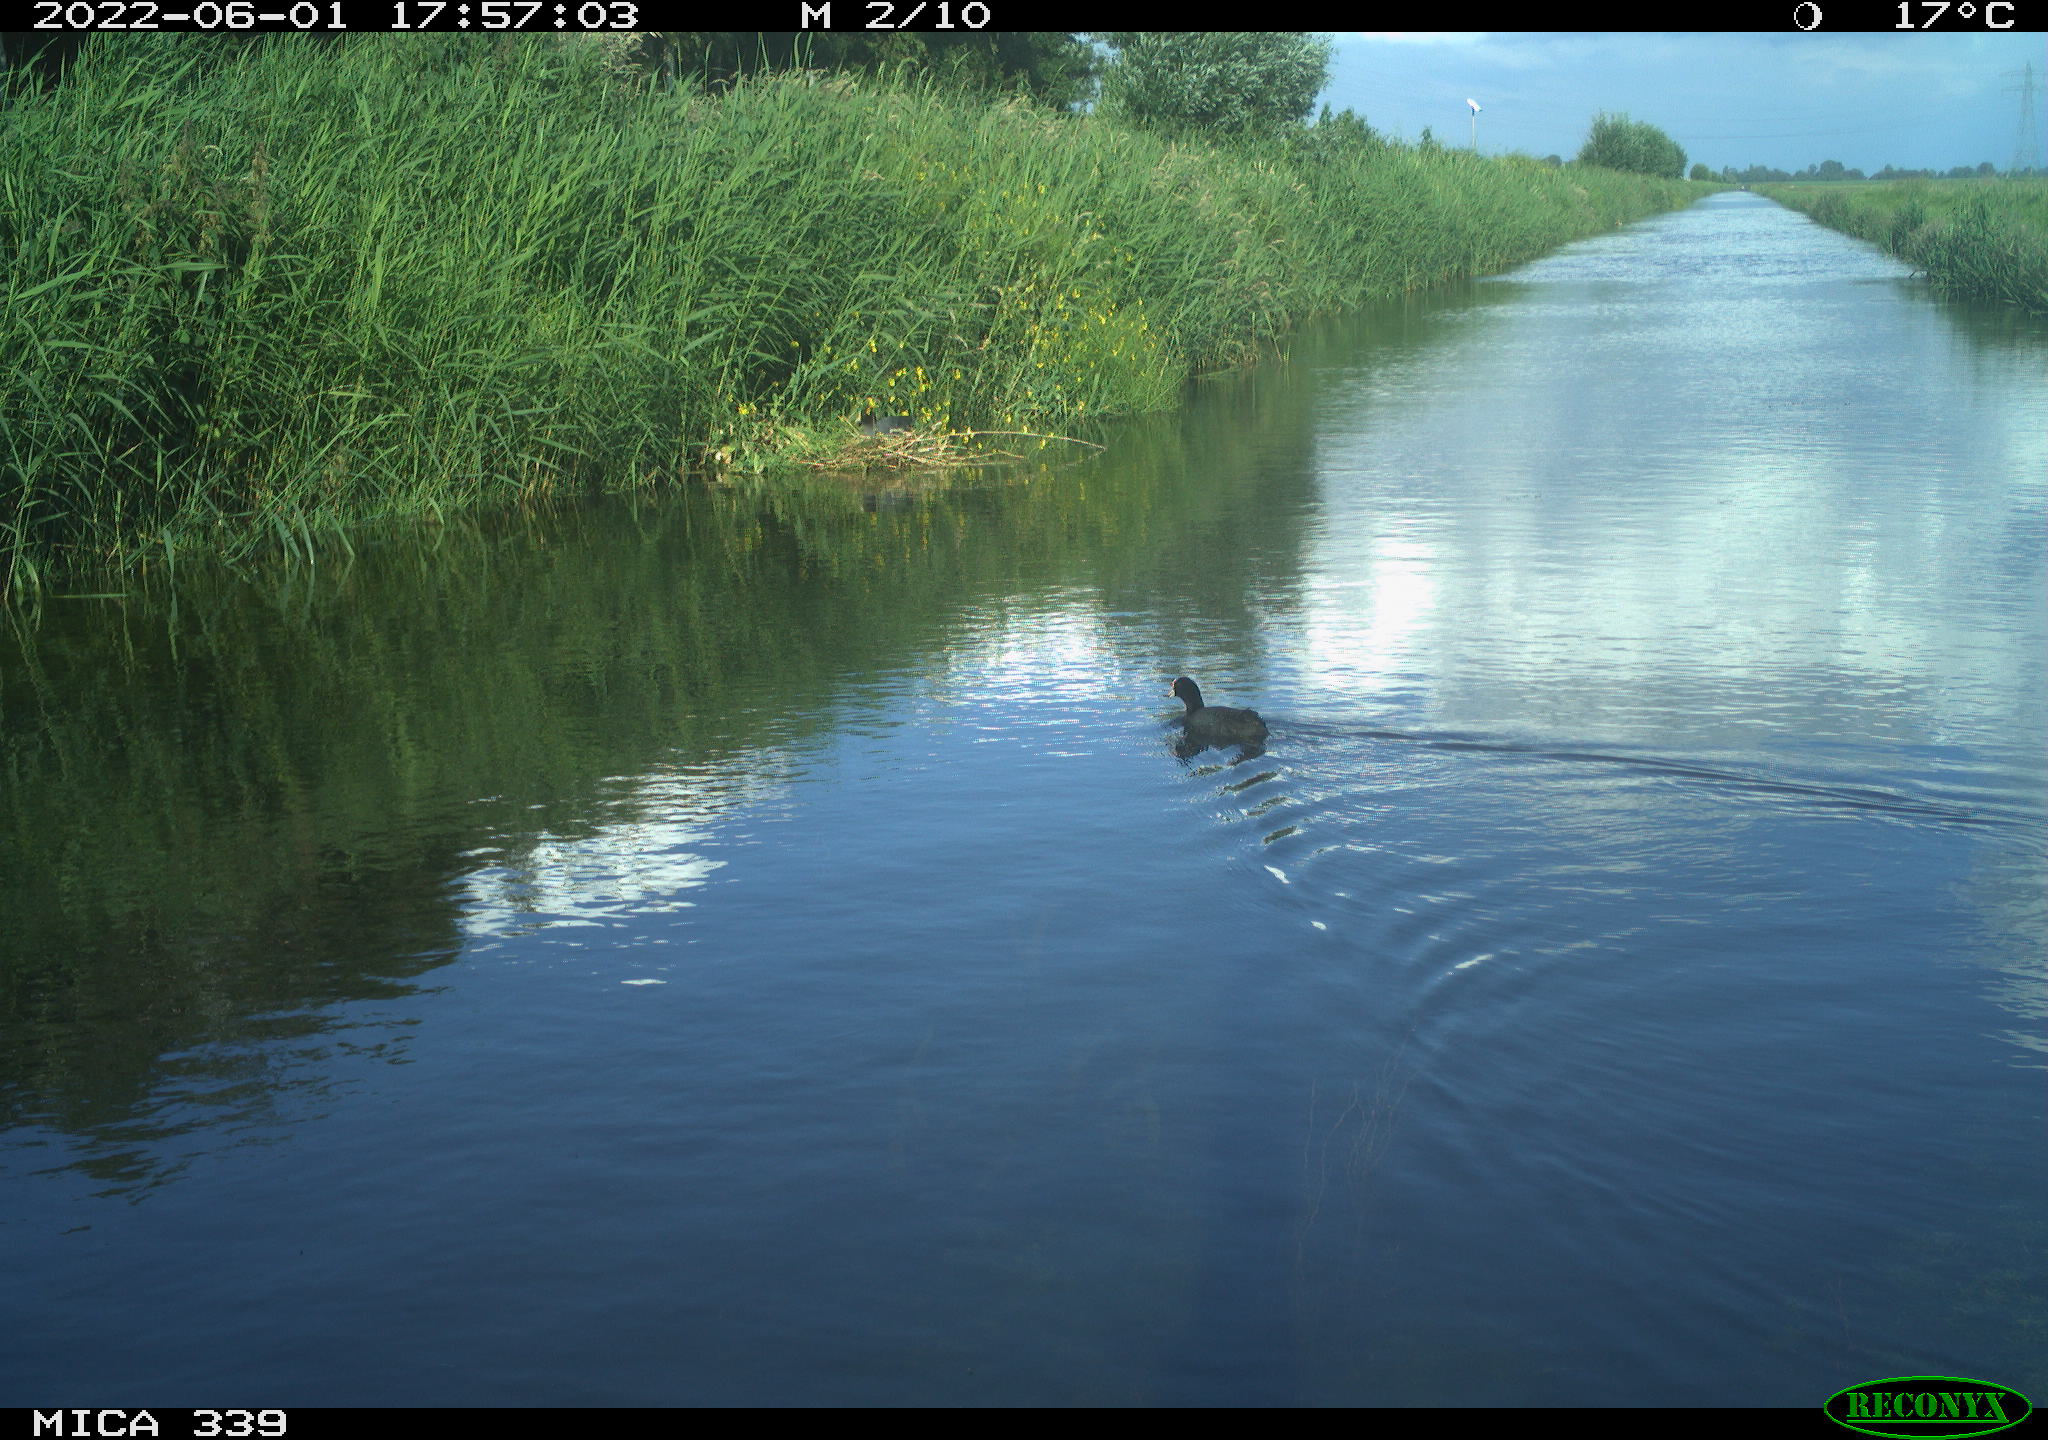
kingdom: Animalia
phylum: Chordata
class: Aves
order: Gruiformes
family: Rallidae
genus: Fulica
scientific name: Fulica atra
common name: Eurasian coot
